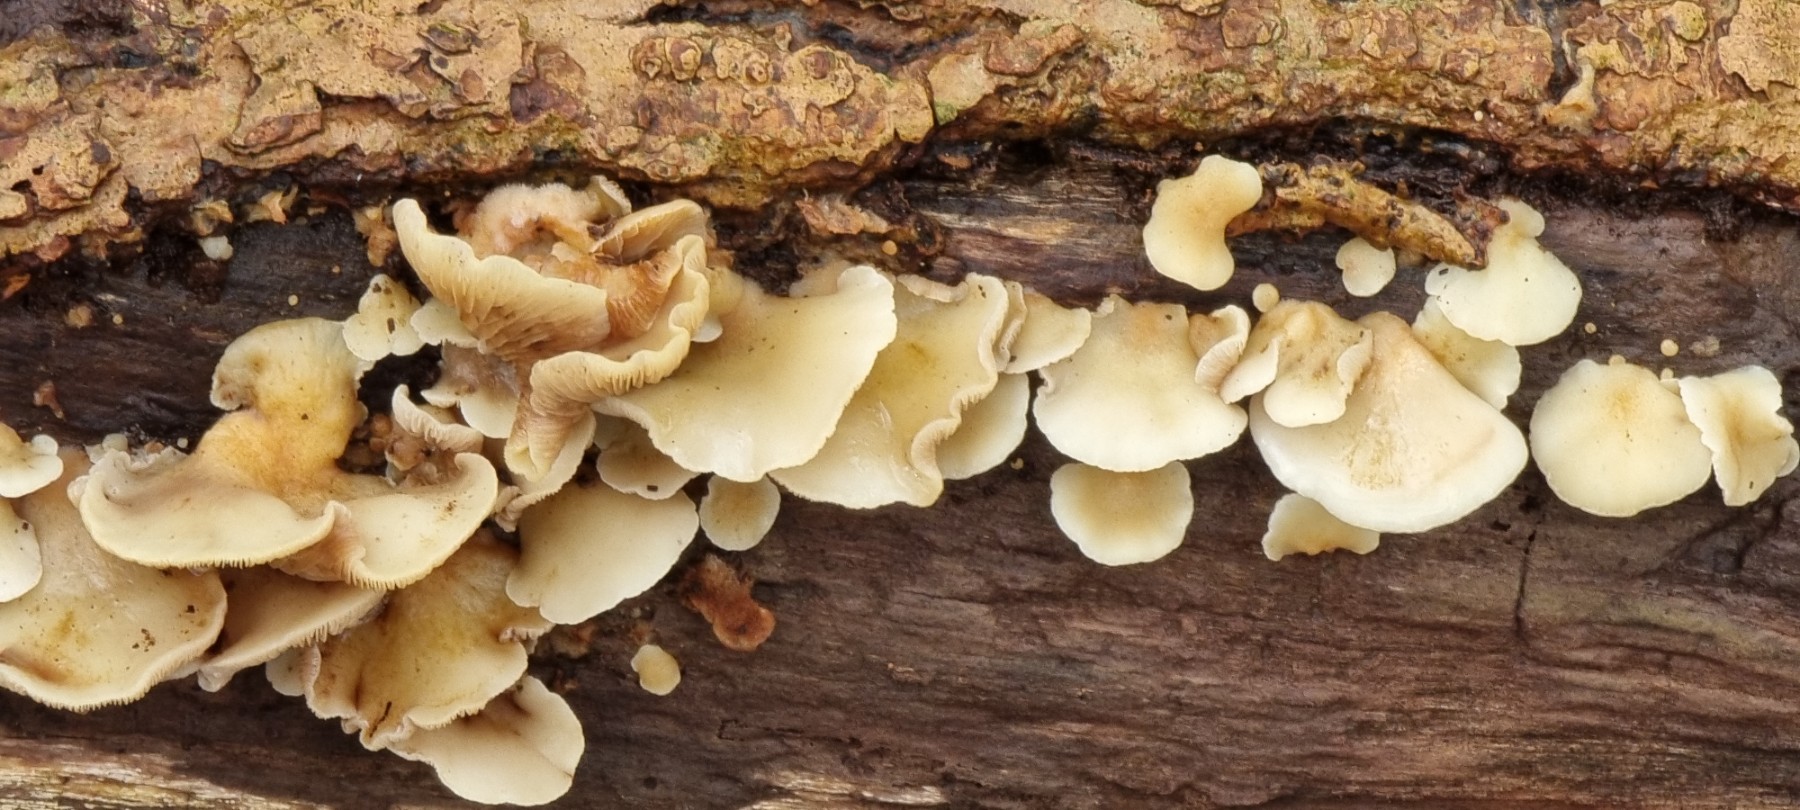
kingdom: Fungi
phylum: Basidiomycota
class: Agaricomycetes
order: Agaricales
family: Crepidotaceae
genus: Crepidotus
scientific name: Crepidotus
